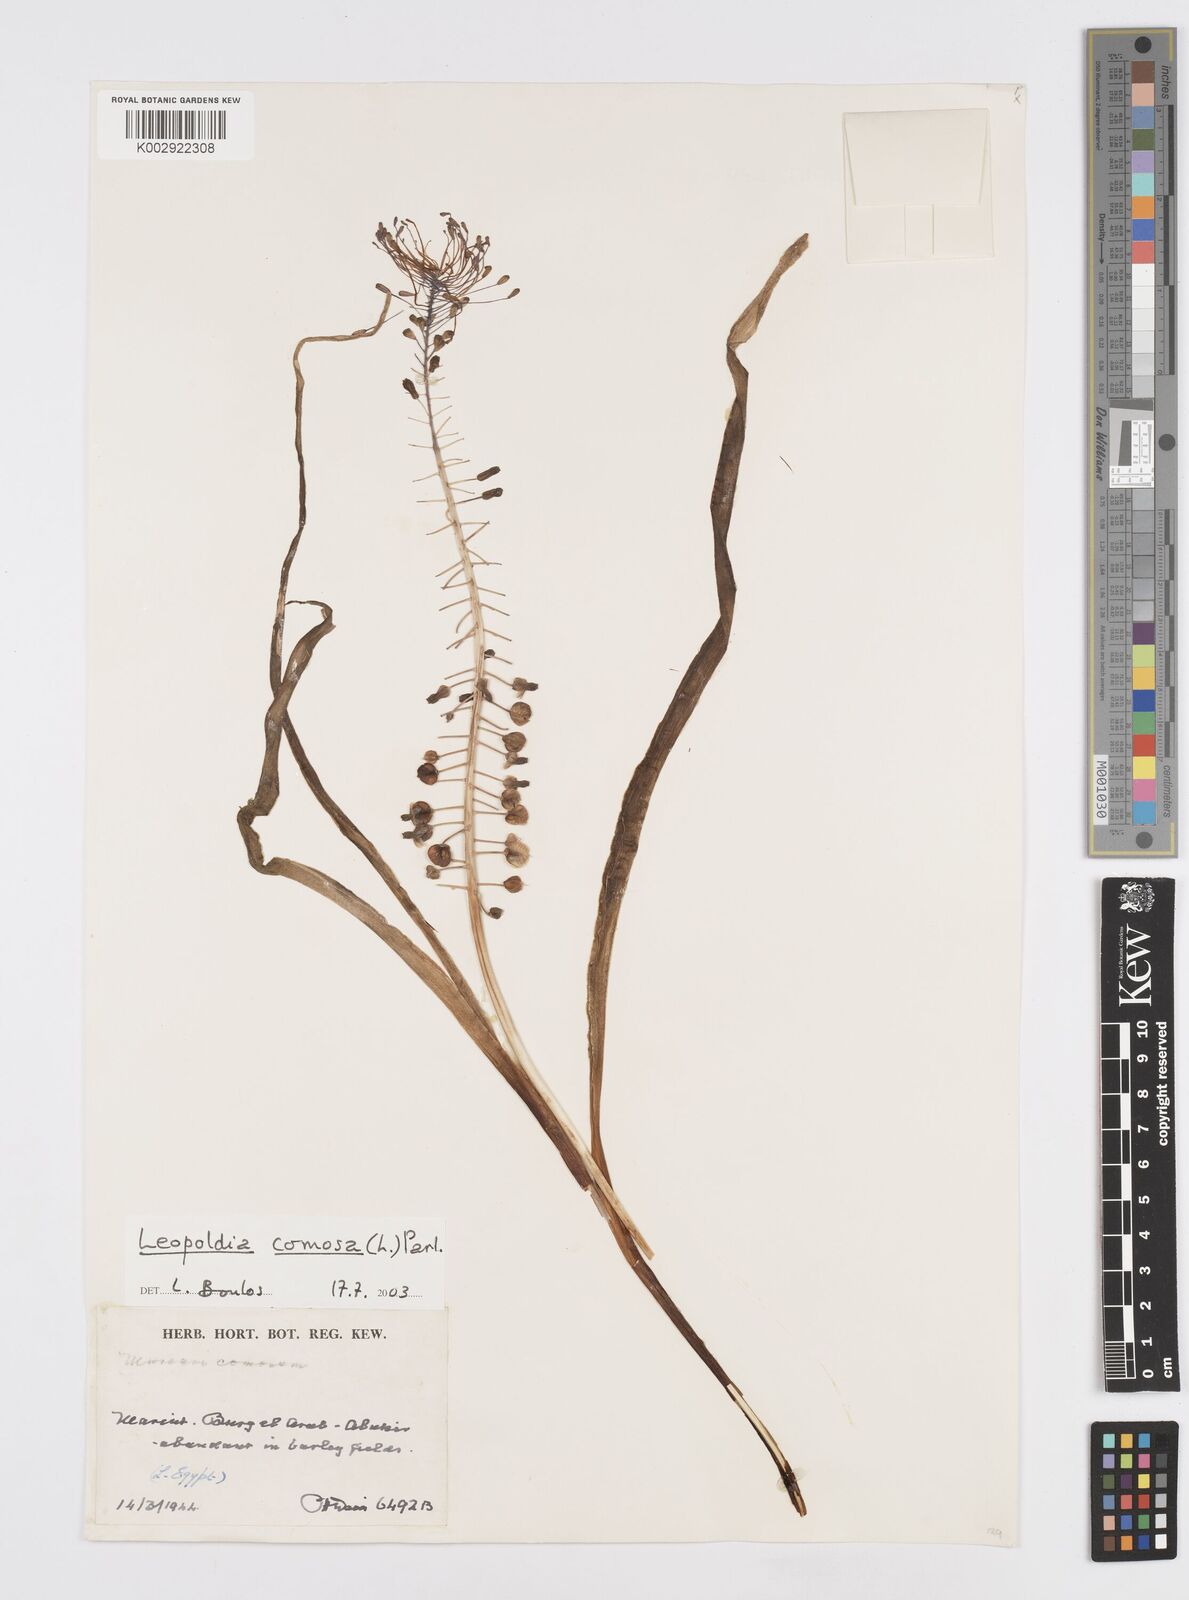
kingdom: Plantae
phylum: Tracheophyta
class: Liliopsida
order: Asparagales
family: Asparagaceae
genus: Muscari
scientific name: Muscari comosum
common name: Tassel hyacinth
